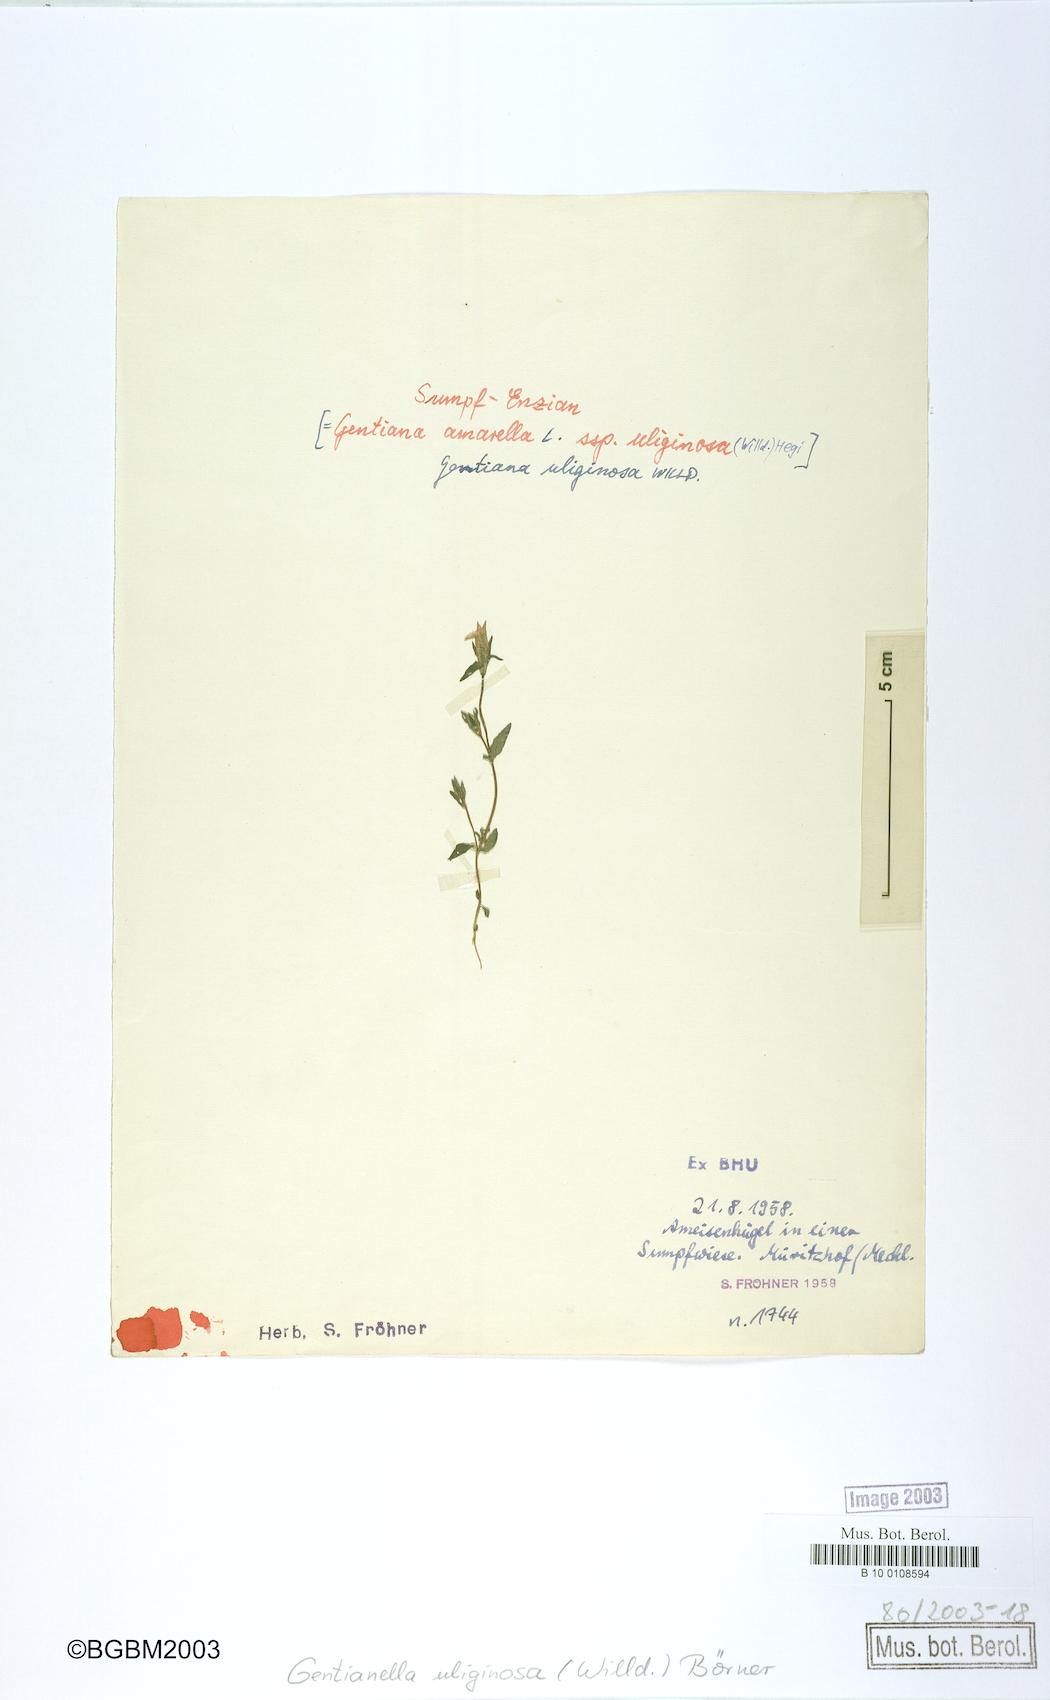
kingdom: Plantae
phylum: Tracheophyta
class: Magnoliopsida
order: Gentianales
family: Gentianaceae
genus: Gentianella
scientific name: Gentianella uliginosa
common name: Dune gentian
